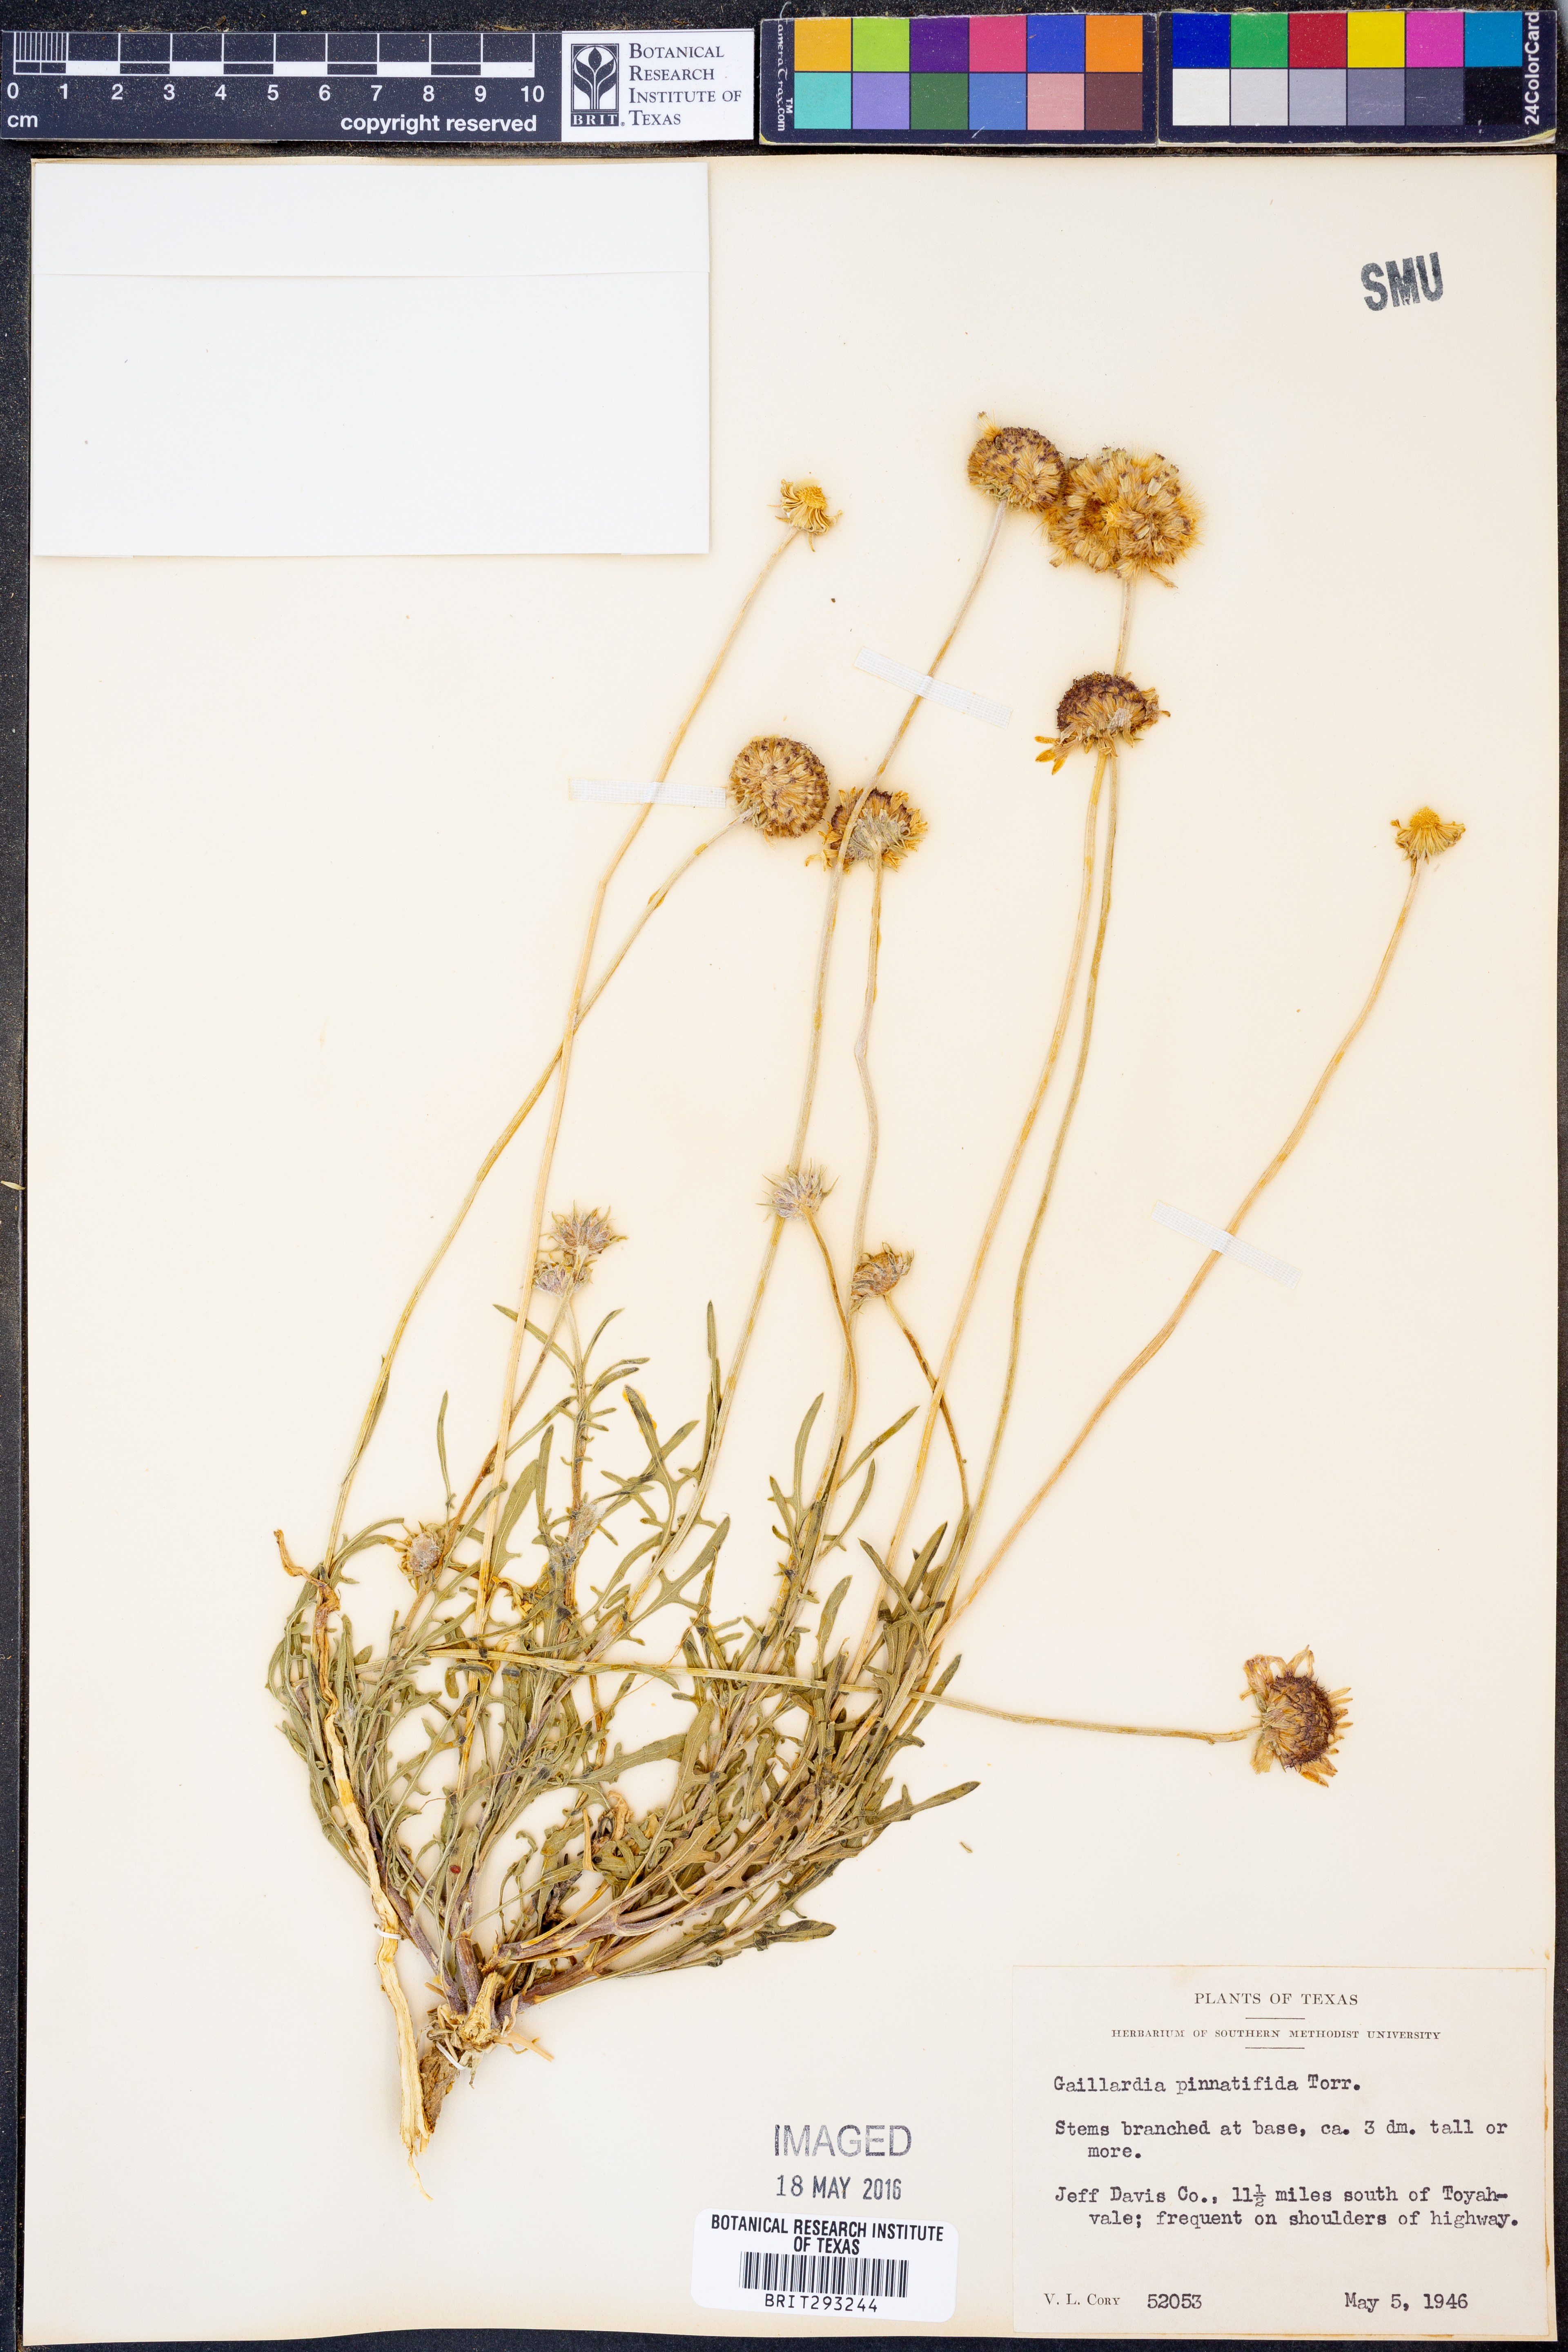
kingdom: Plantae
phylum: Tracheophyta
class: Magnoliopsida
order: Asterales
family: Asteraceae
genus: Gaillardia
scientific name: Gaillardia pinnatifida
